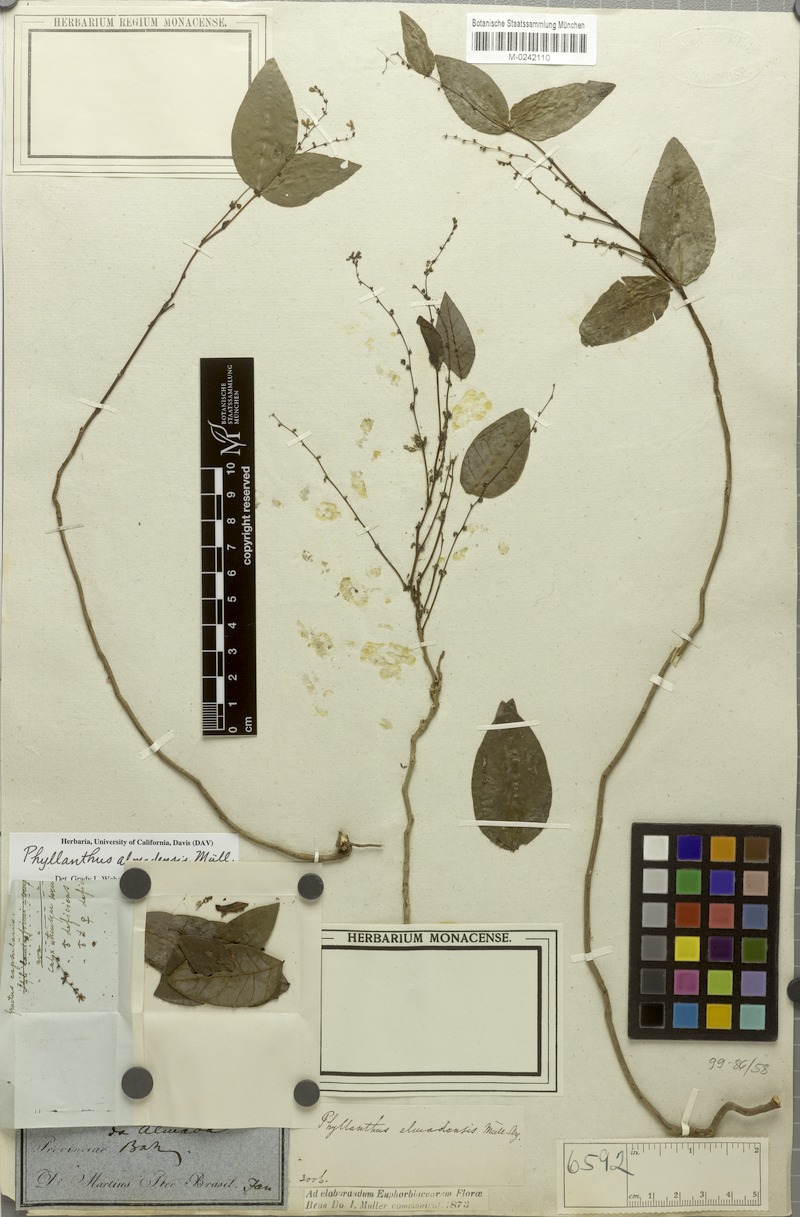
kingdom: Plantae
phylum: Tracheophyta
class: Magnoliopsida
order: Malpighiales
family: Phyllanthaceae
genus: Phyllanthus
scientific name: Phyllanthus almadensis
